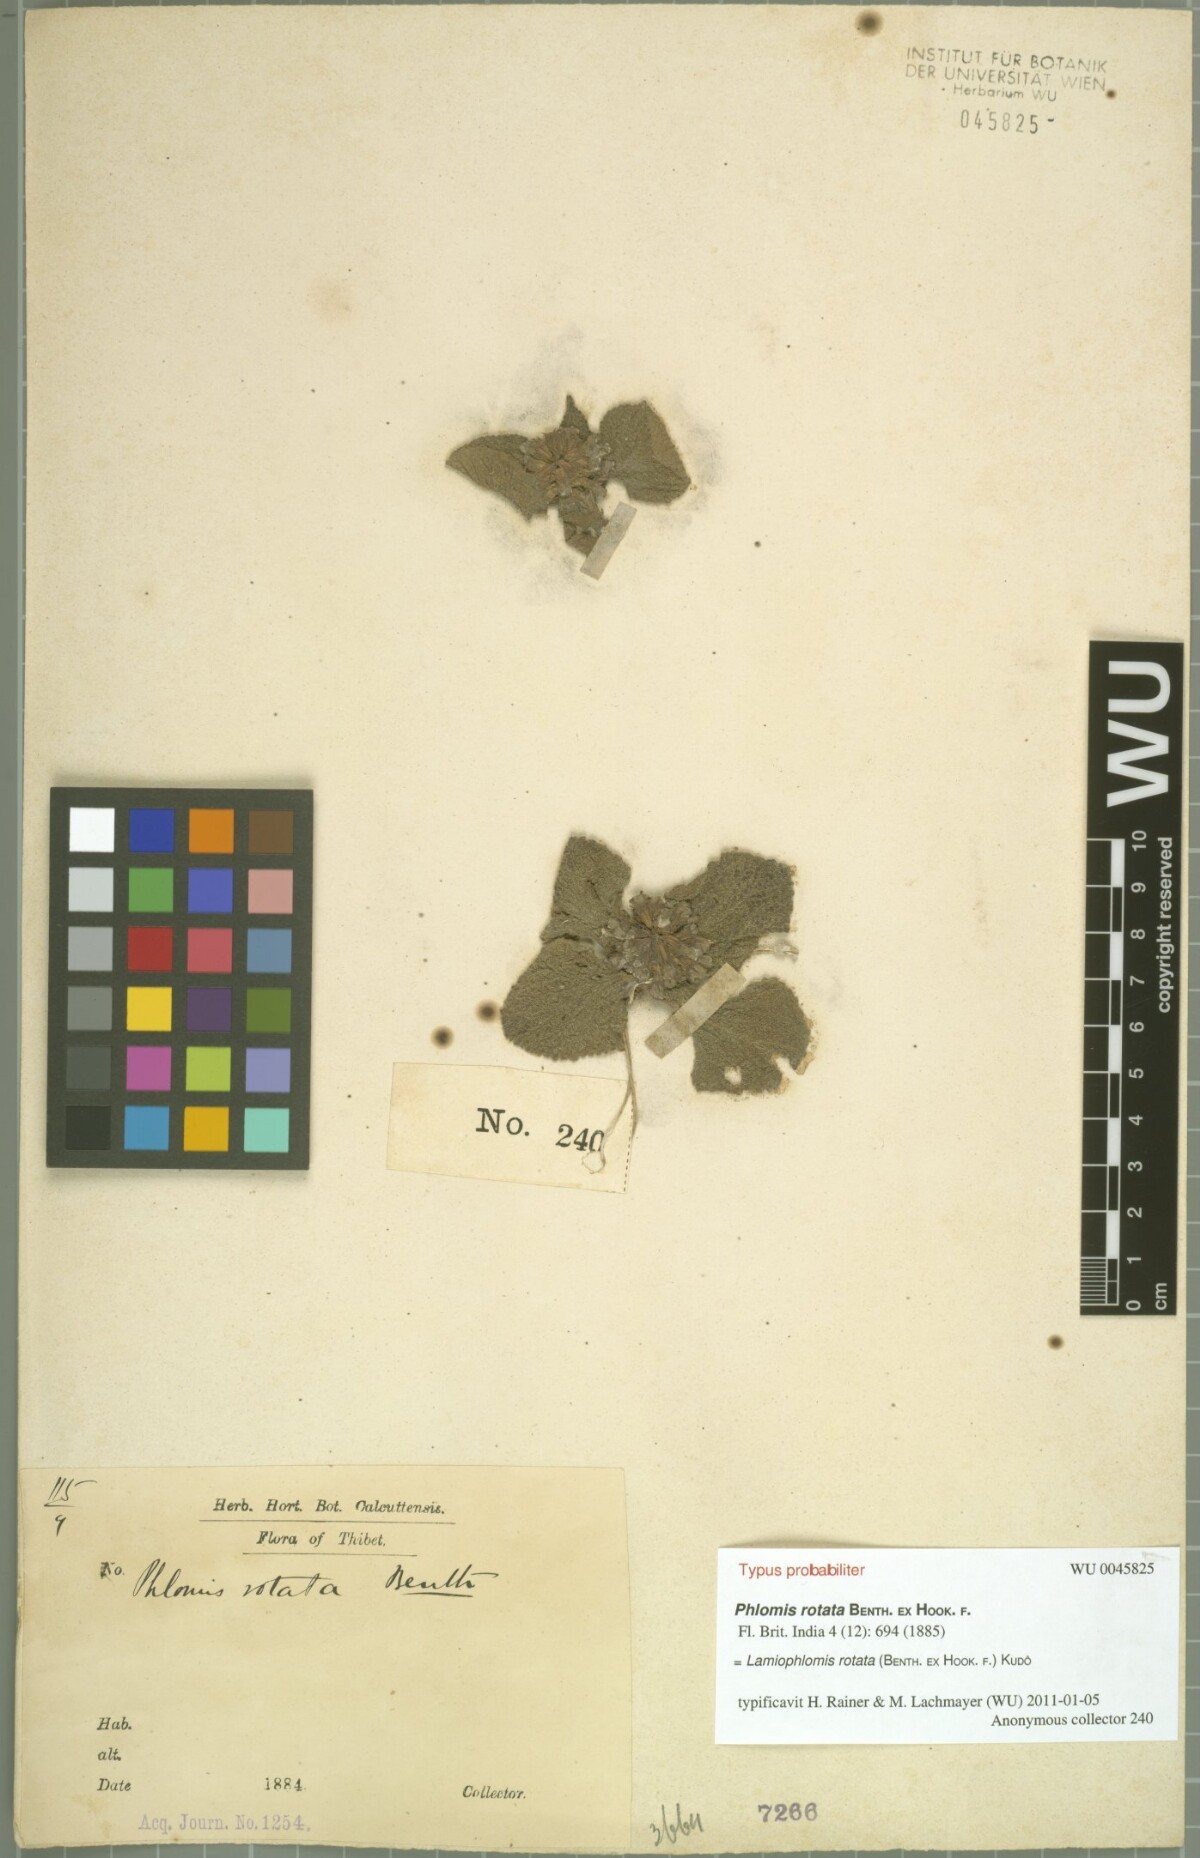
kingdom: Plantae
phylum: Tracheophyta
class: Magnoliopsida
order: Lamiales
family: Lamiaceae
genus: Phlomoides
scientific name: Phlomoides rotata
